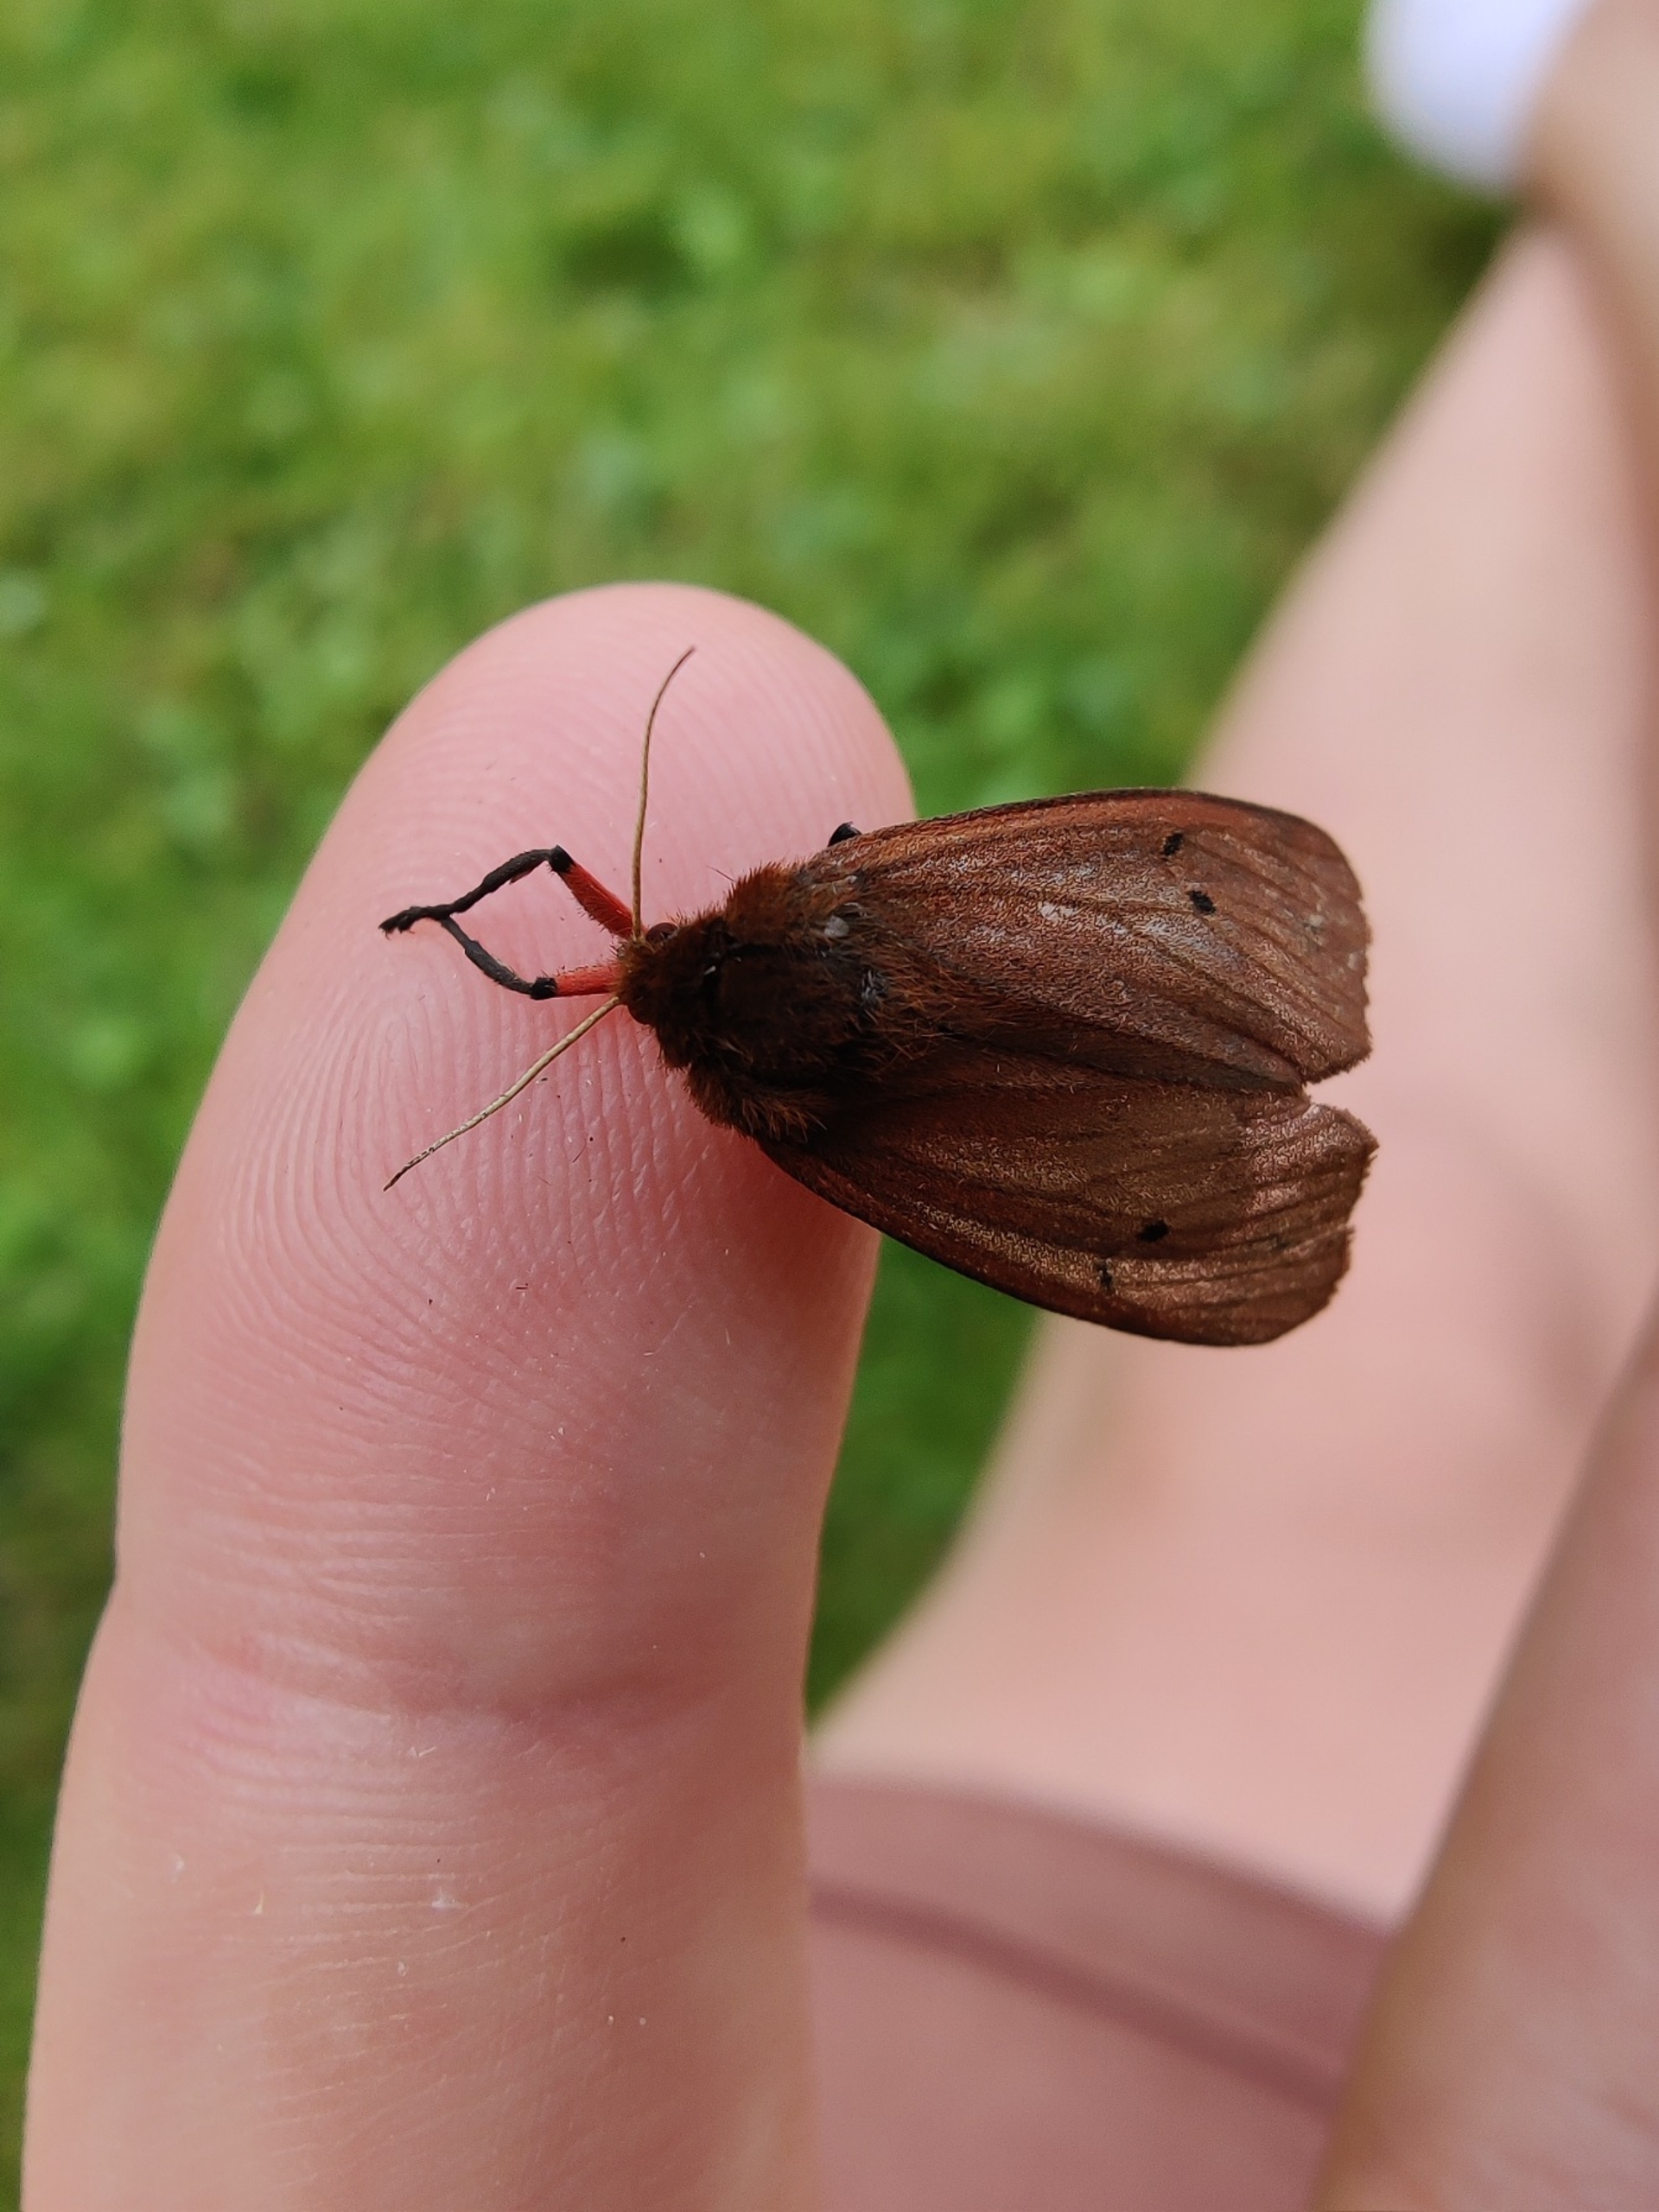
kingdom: Animalia
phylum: Arthropoda
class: Insecta
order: Lepidoptera
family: Erebidae
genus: Phragmatobia
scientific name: Phragmatobia fuliginosa
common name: Kanelbjørn
